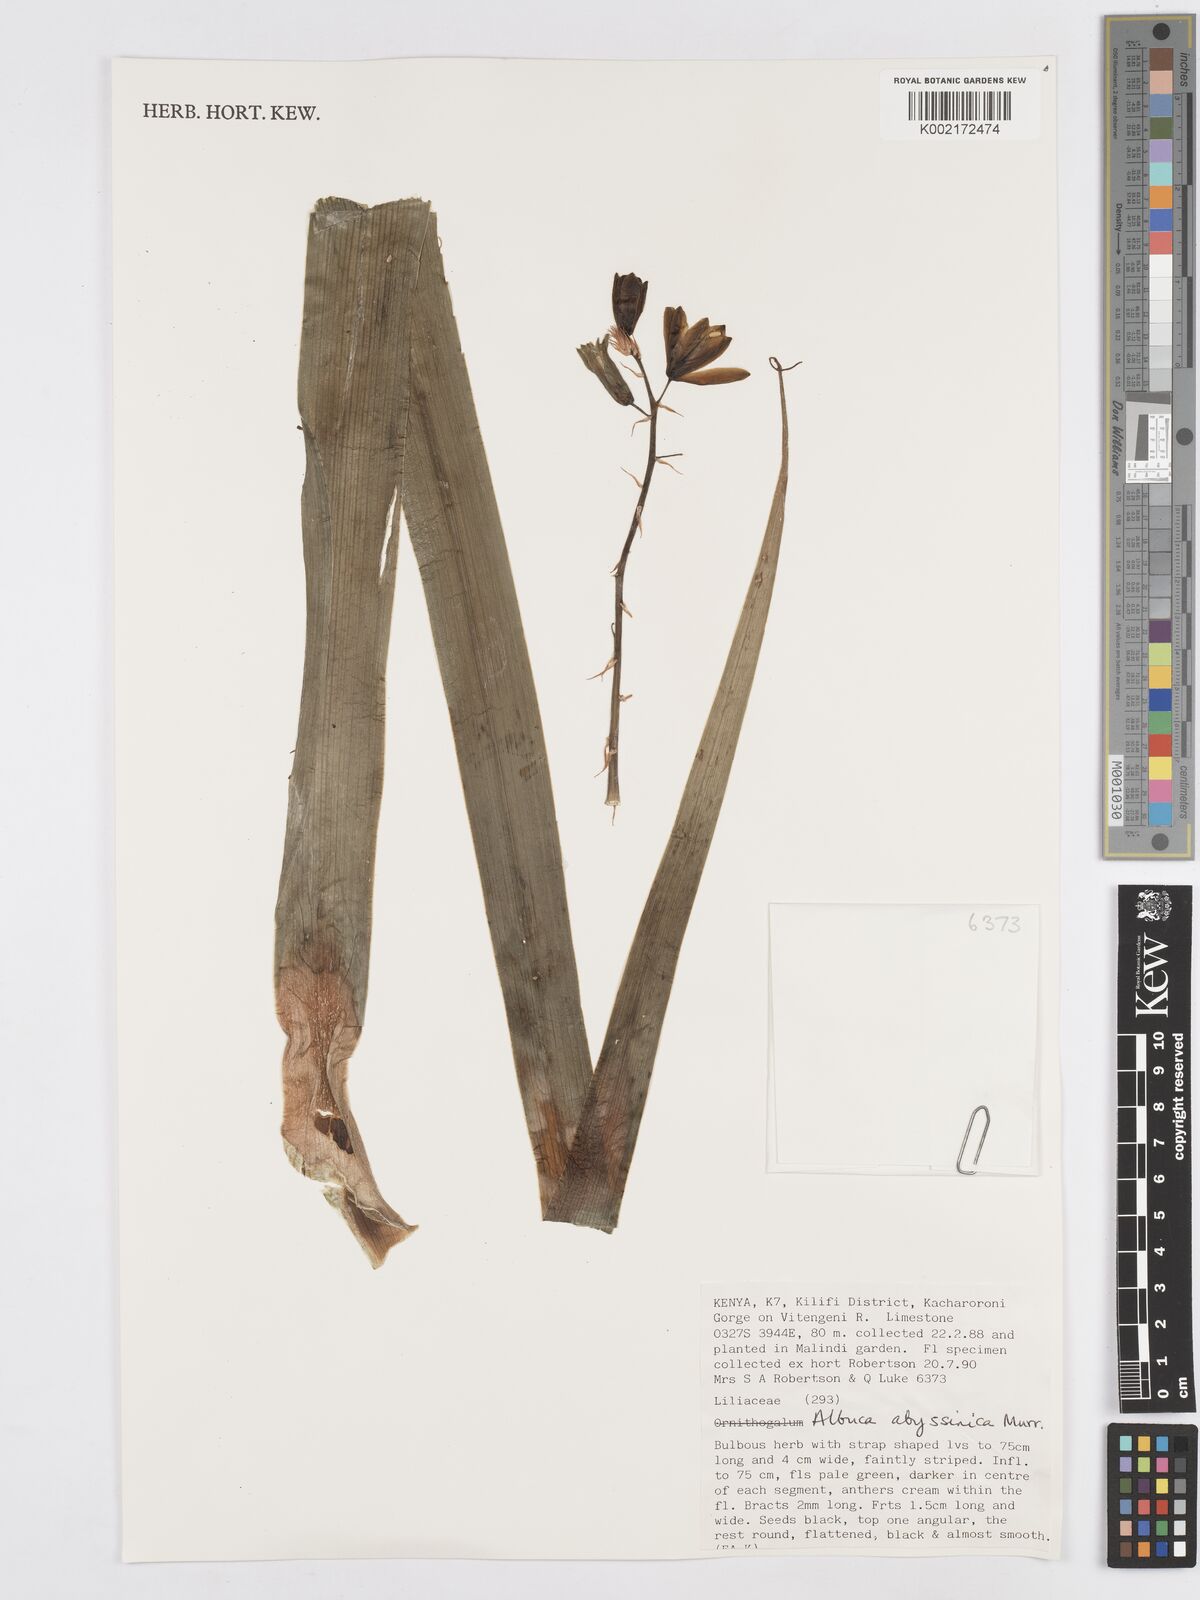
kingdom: Plantae
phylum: Tracheophyta
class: Liliopsida
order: Asparagales
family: Asparagaceae
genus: Albuca
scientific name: Albuca abyssinica
